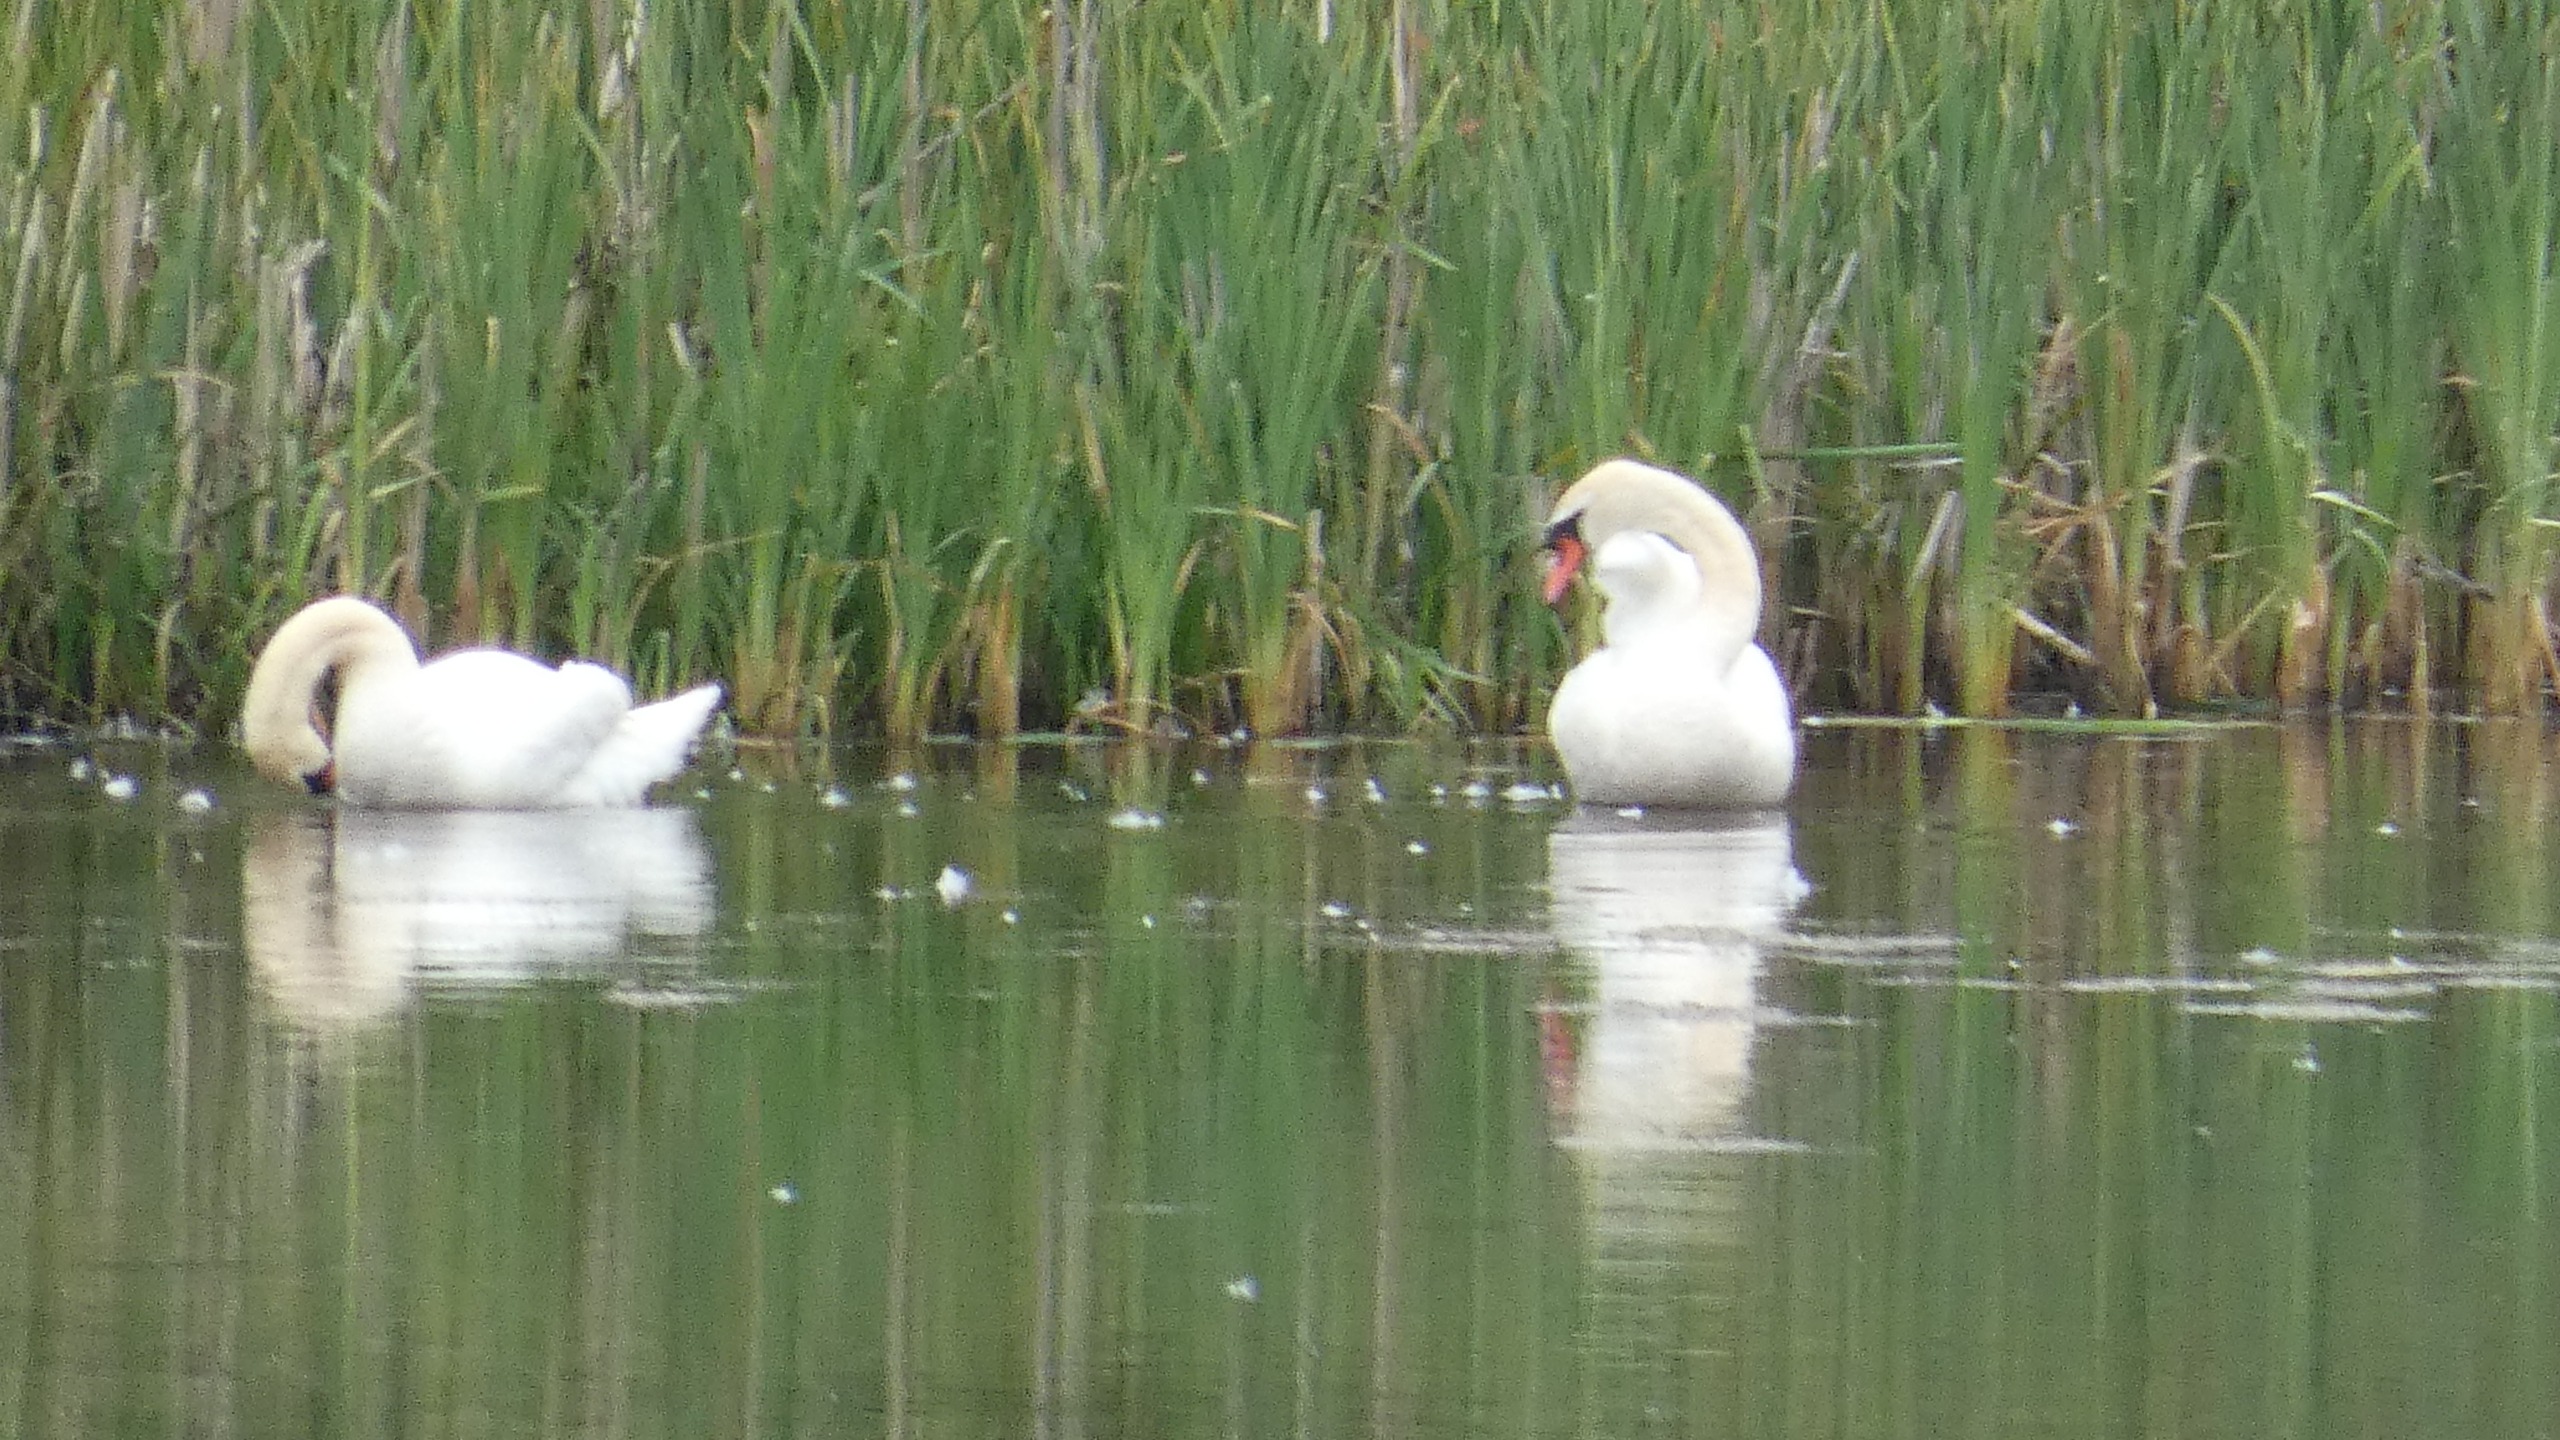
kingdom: Animalia
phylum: Chordata
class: Aves
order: Anseriformes
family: Anatidae
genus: Cygnus
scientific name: Cygnus olor
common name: Knopsvane
